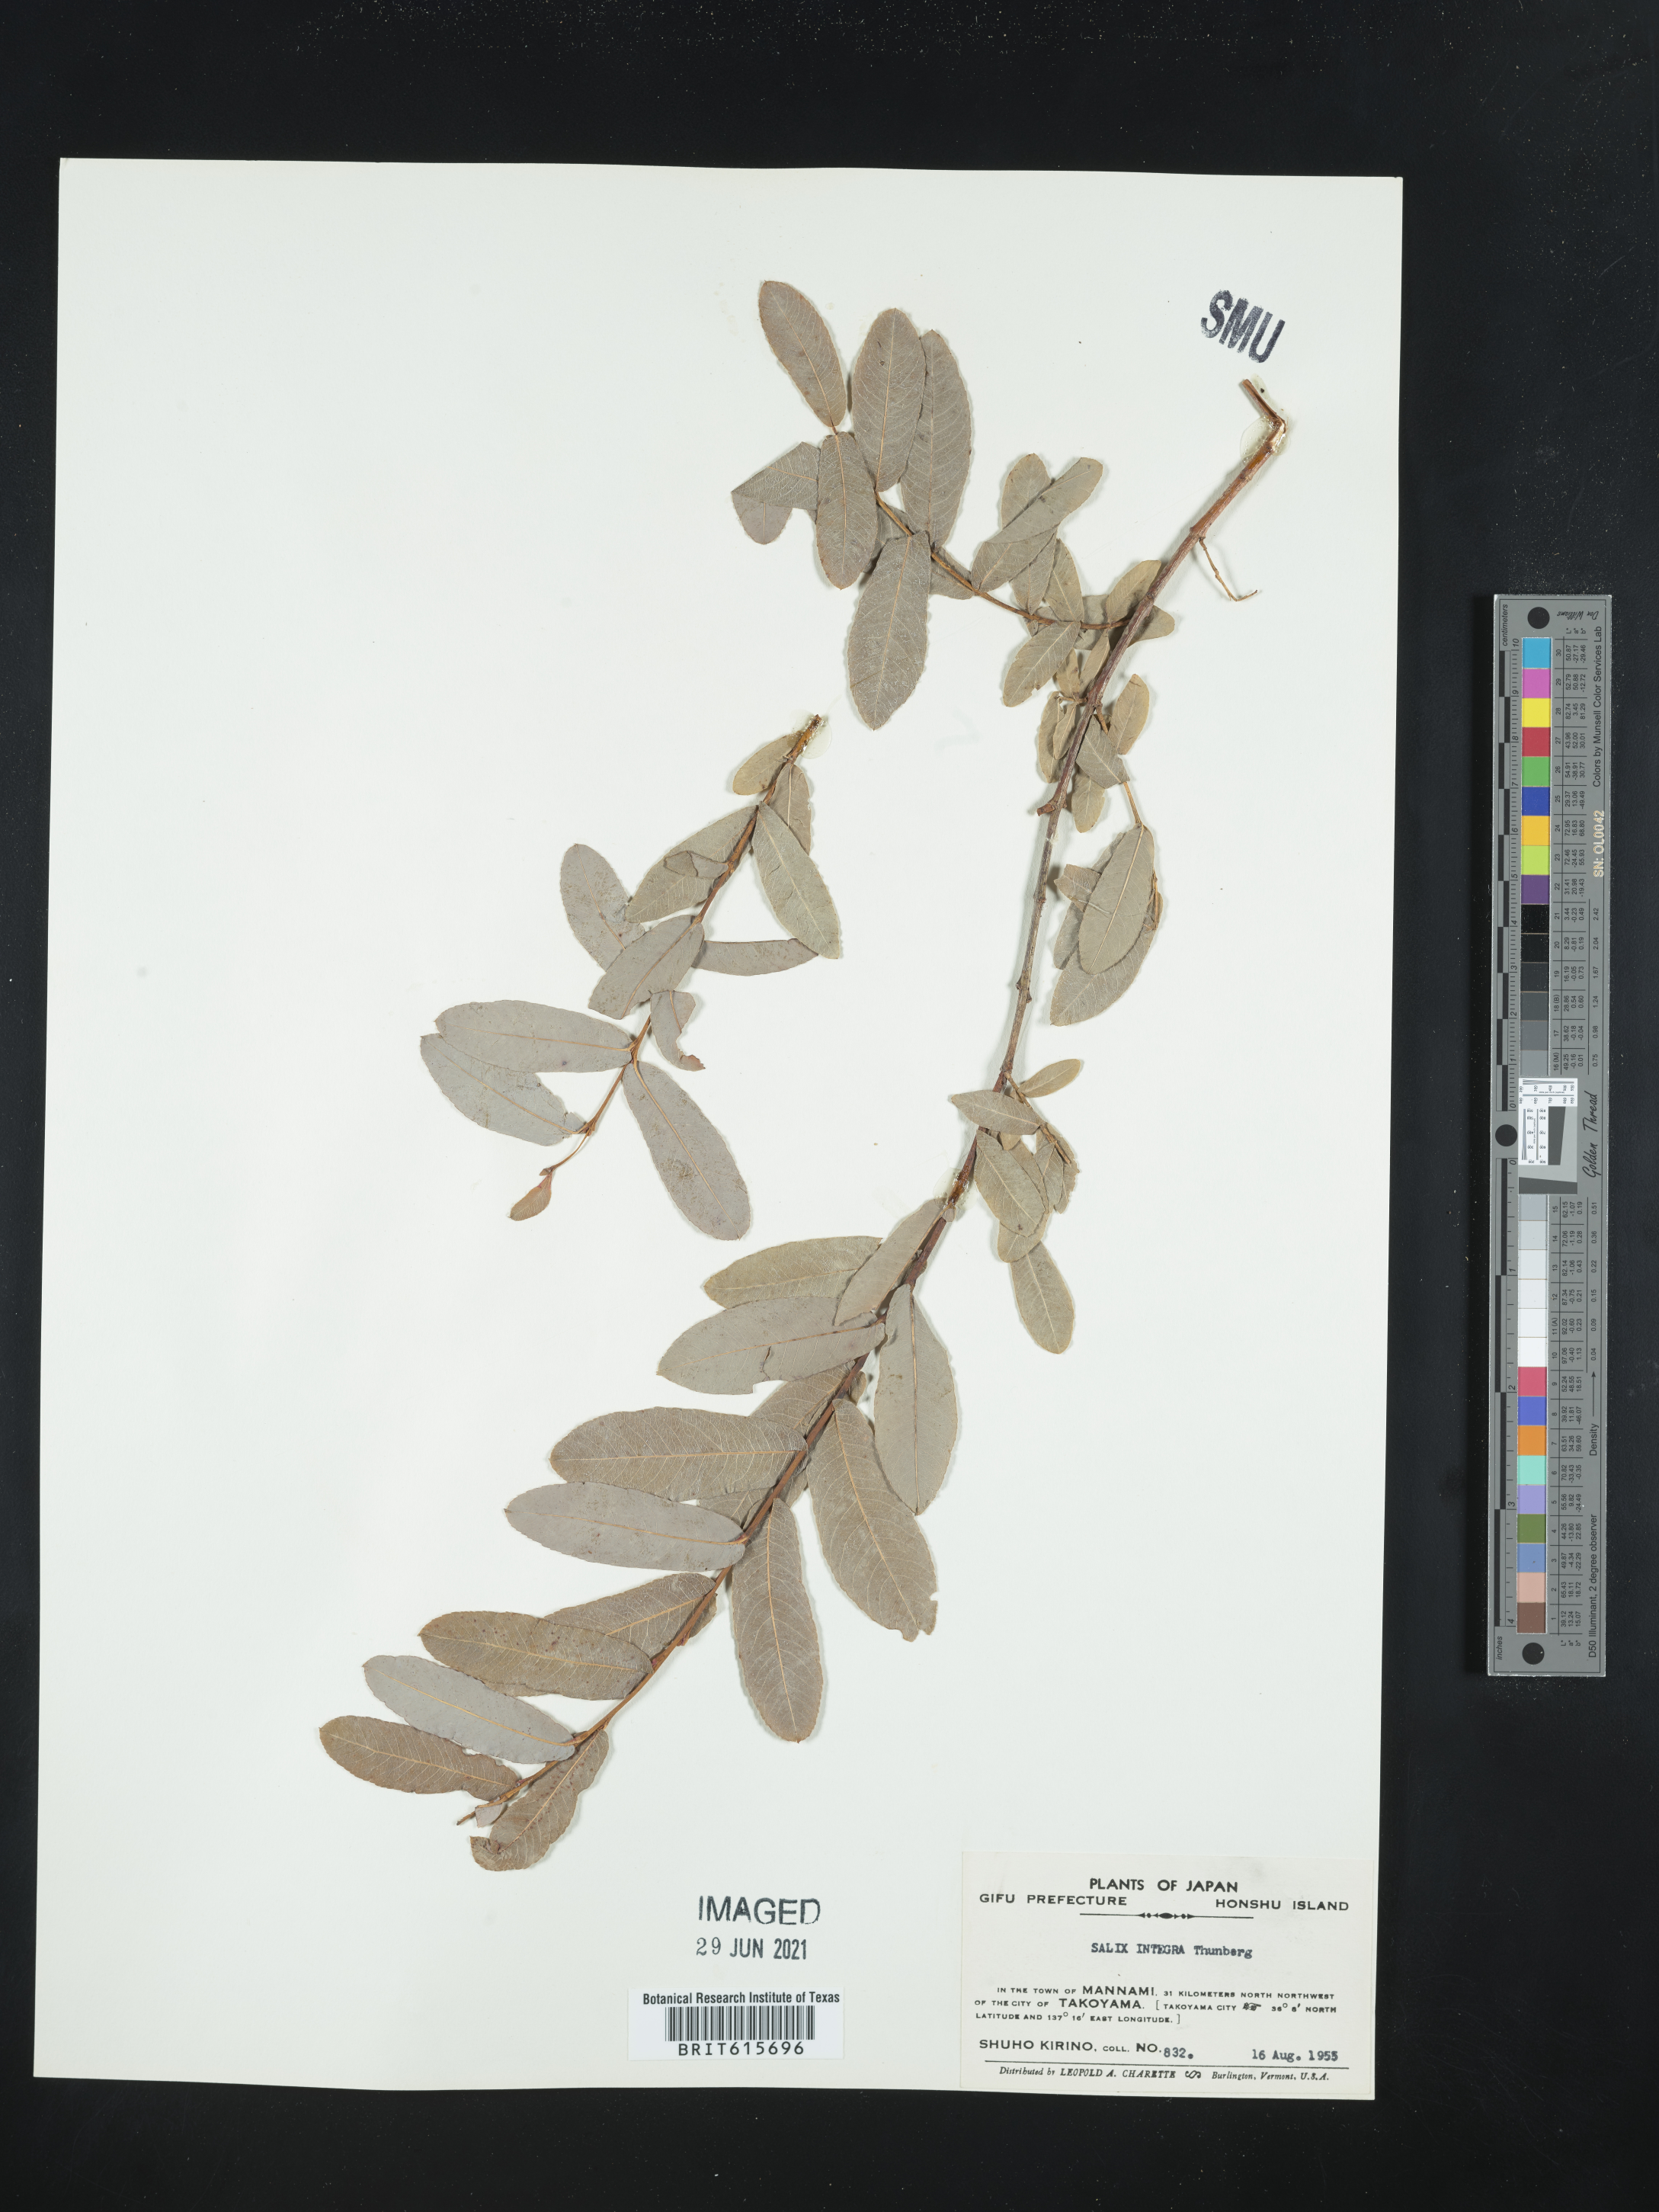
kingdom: Plantae
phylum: Tracheophyta
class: Magnoliopsida
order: Malpighiales
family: Salicaceae
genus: Salix
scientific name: Salix integra
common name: Dappled willow
